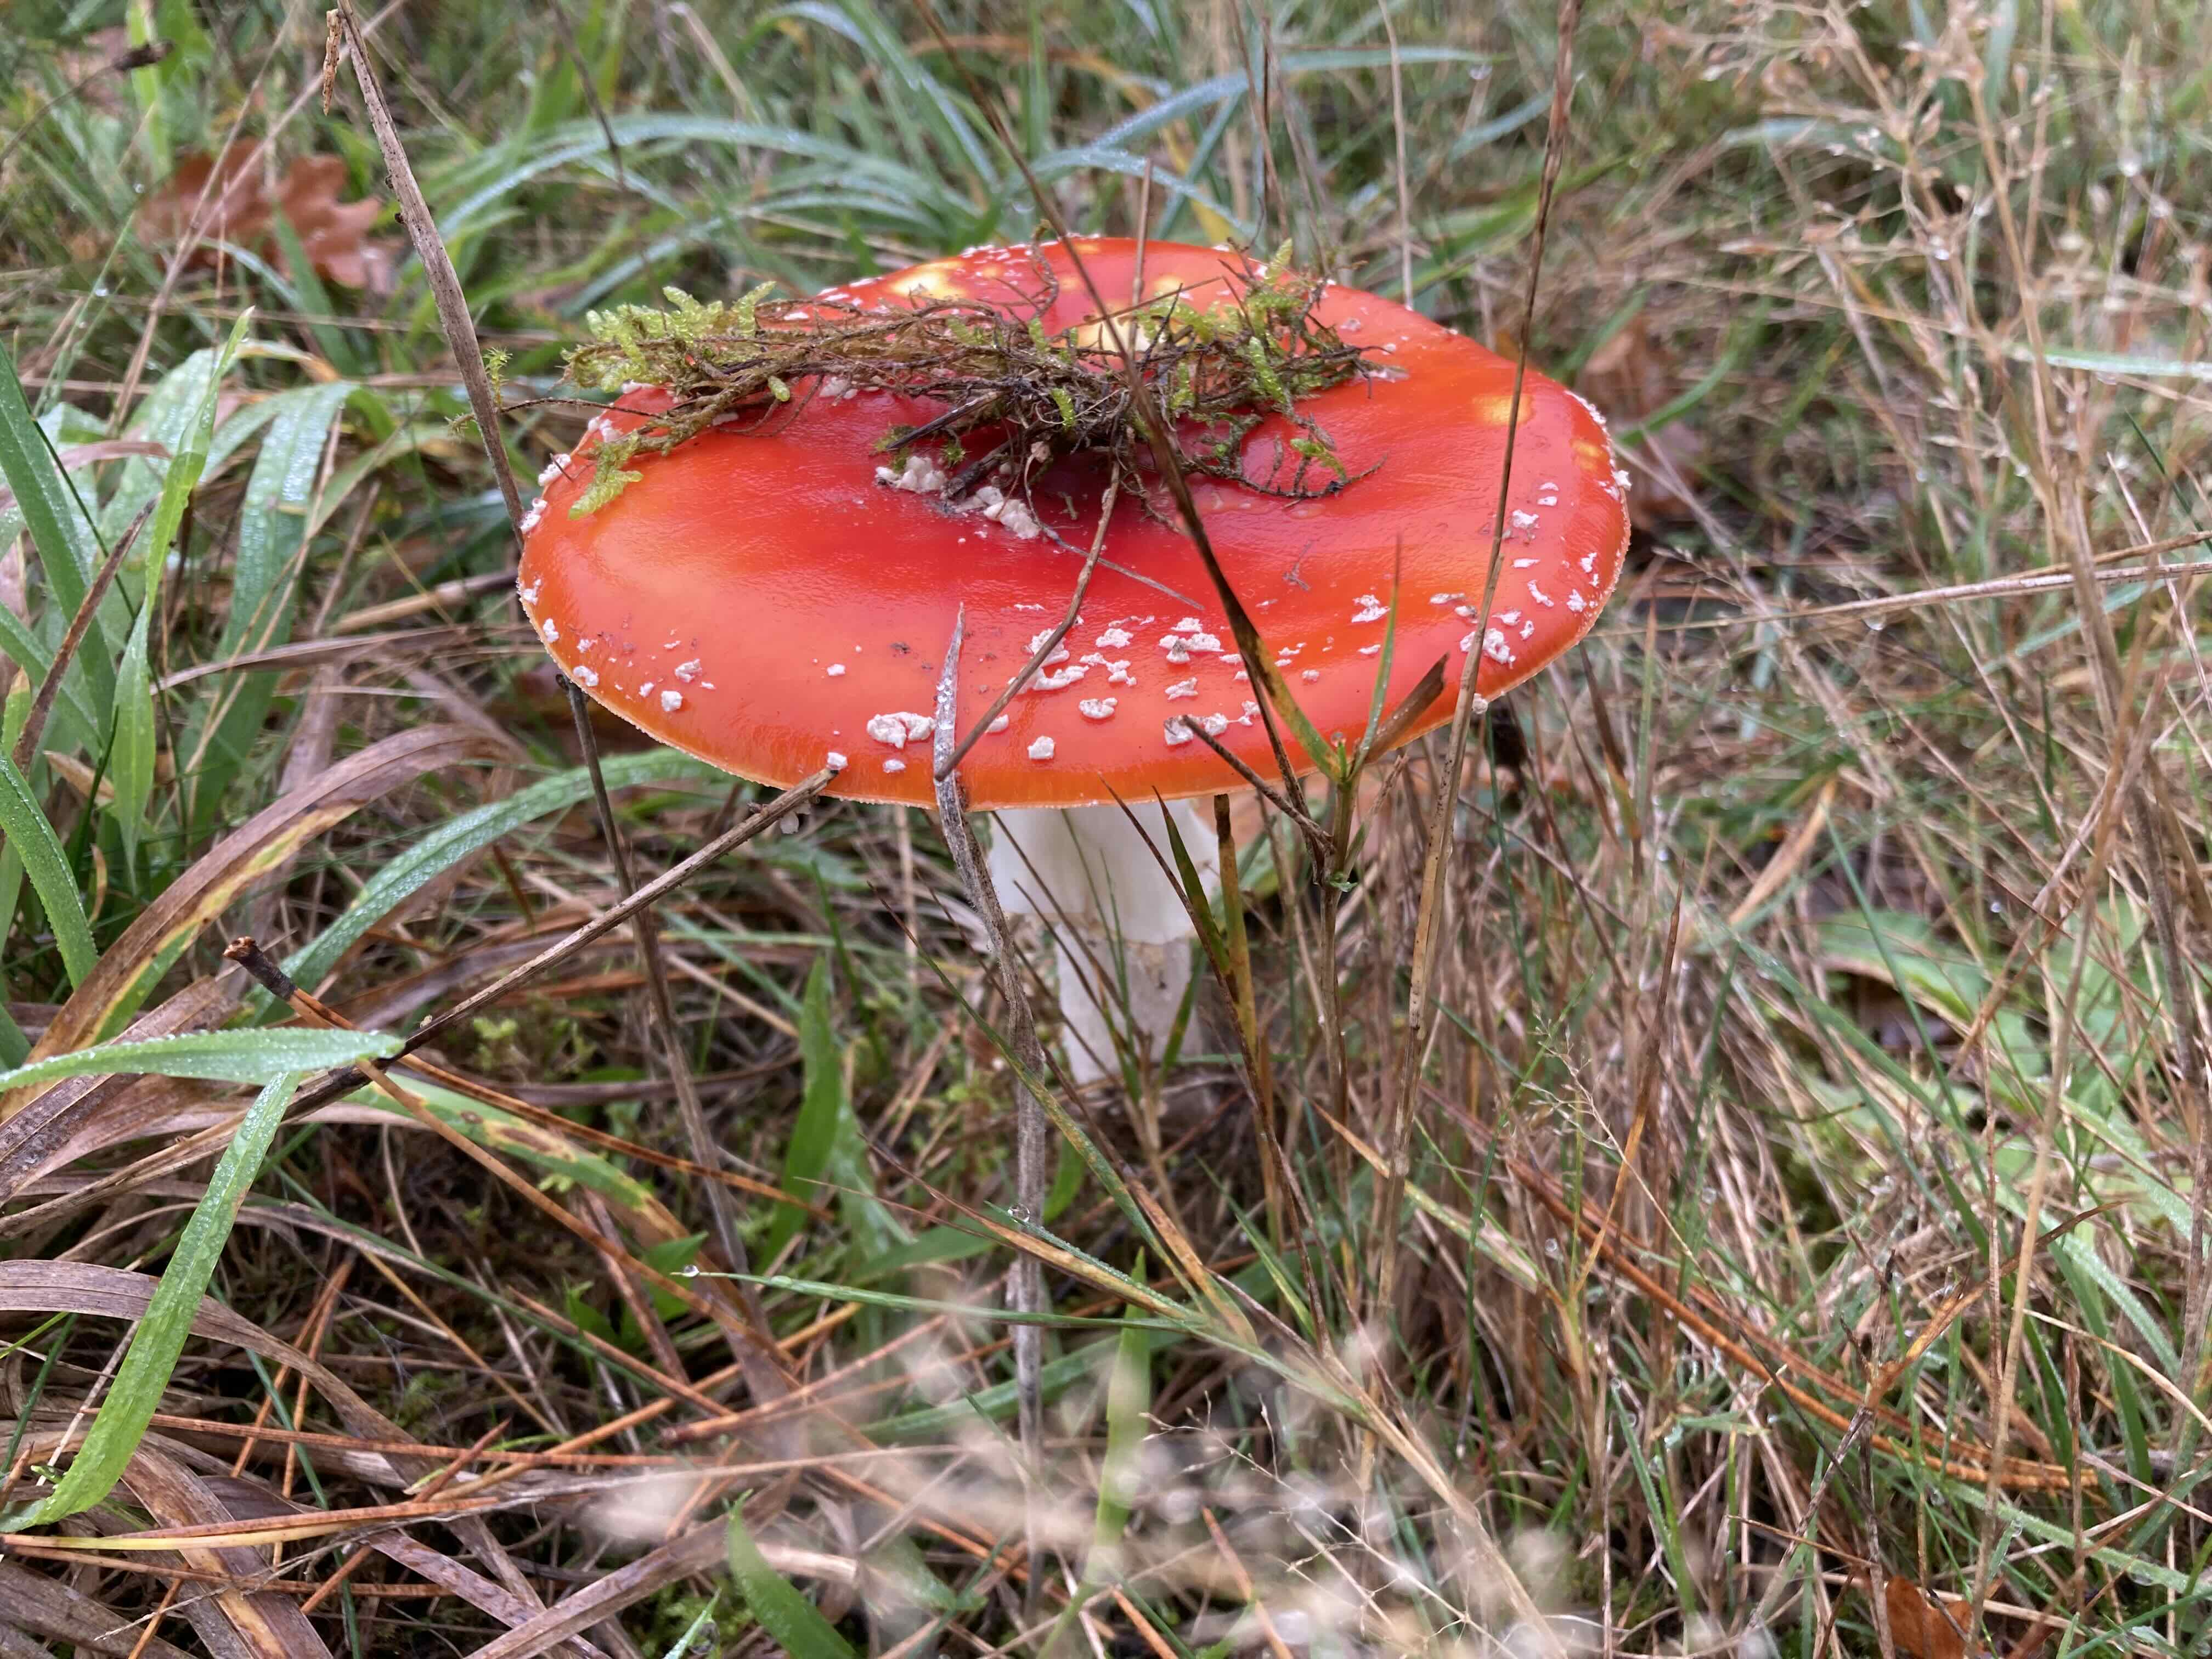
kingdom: Fungi
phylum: Basidiomycota
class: Agaricomycetes
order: Agaricales
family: Amanitaceae
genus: Amanita
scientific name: Amanita muscaria
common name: rød fluesvamp
